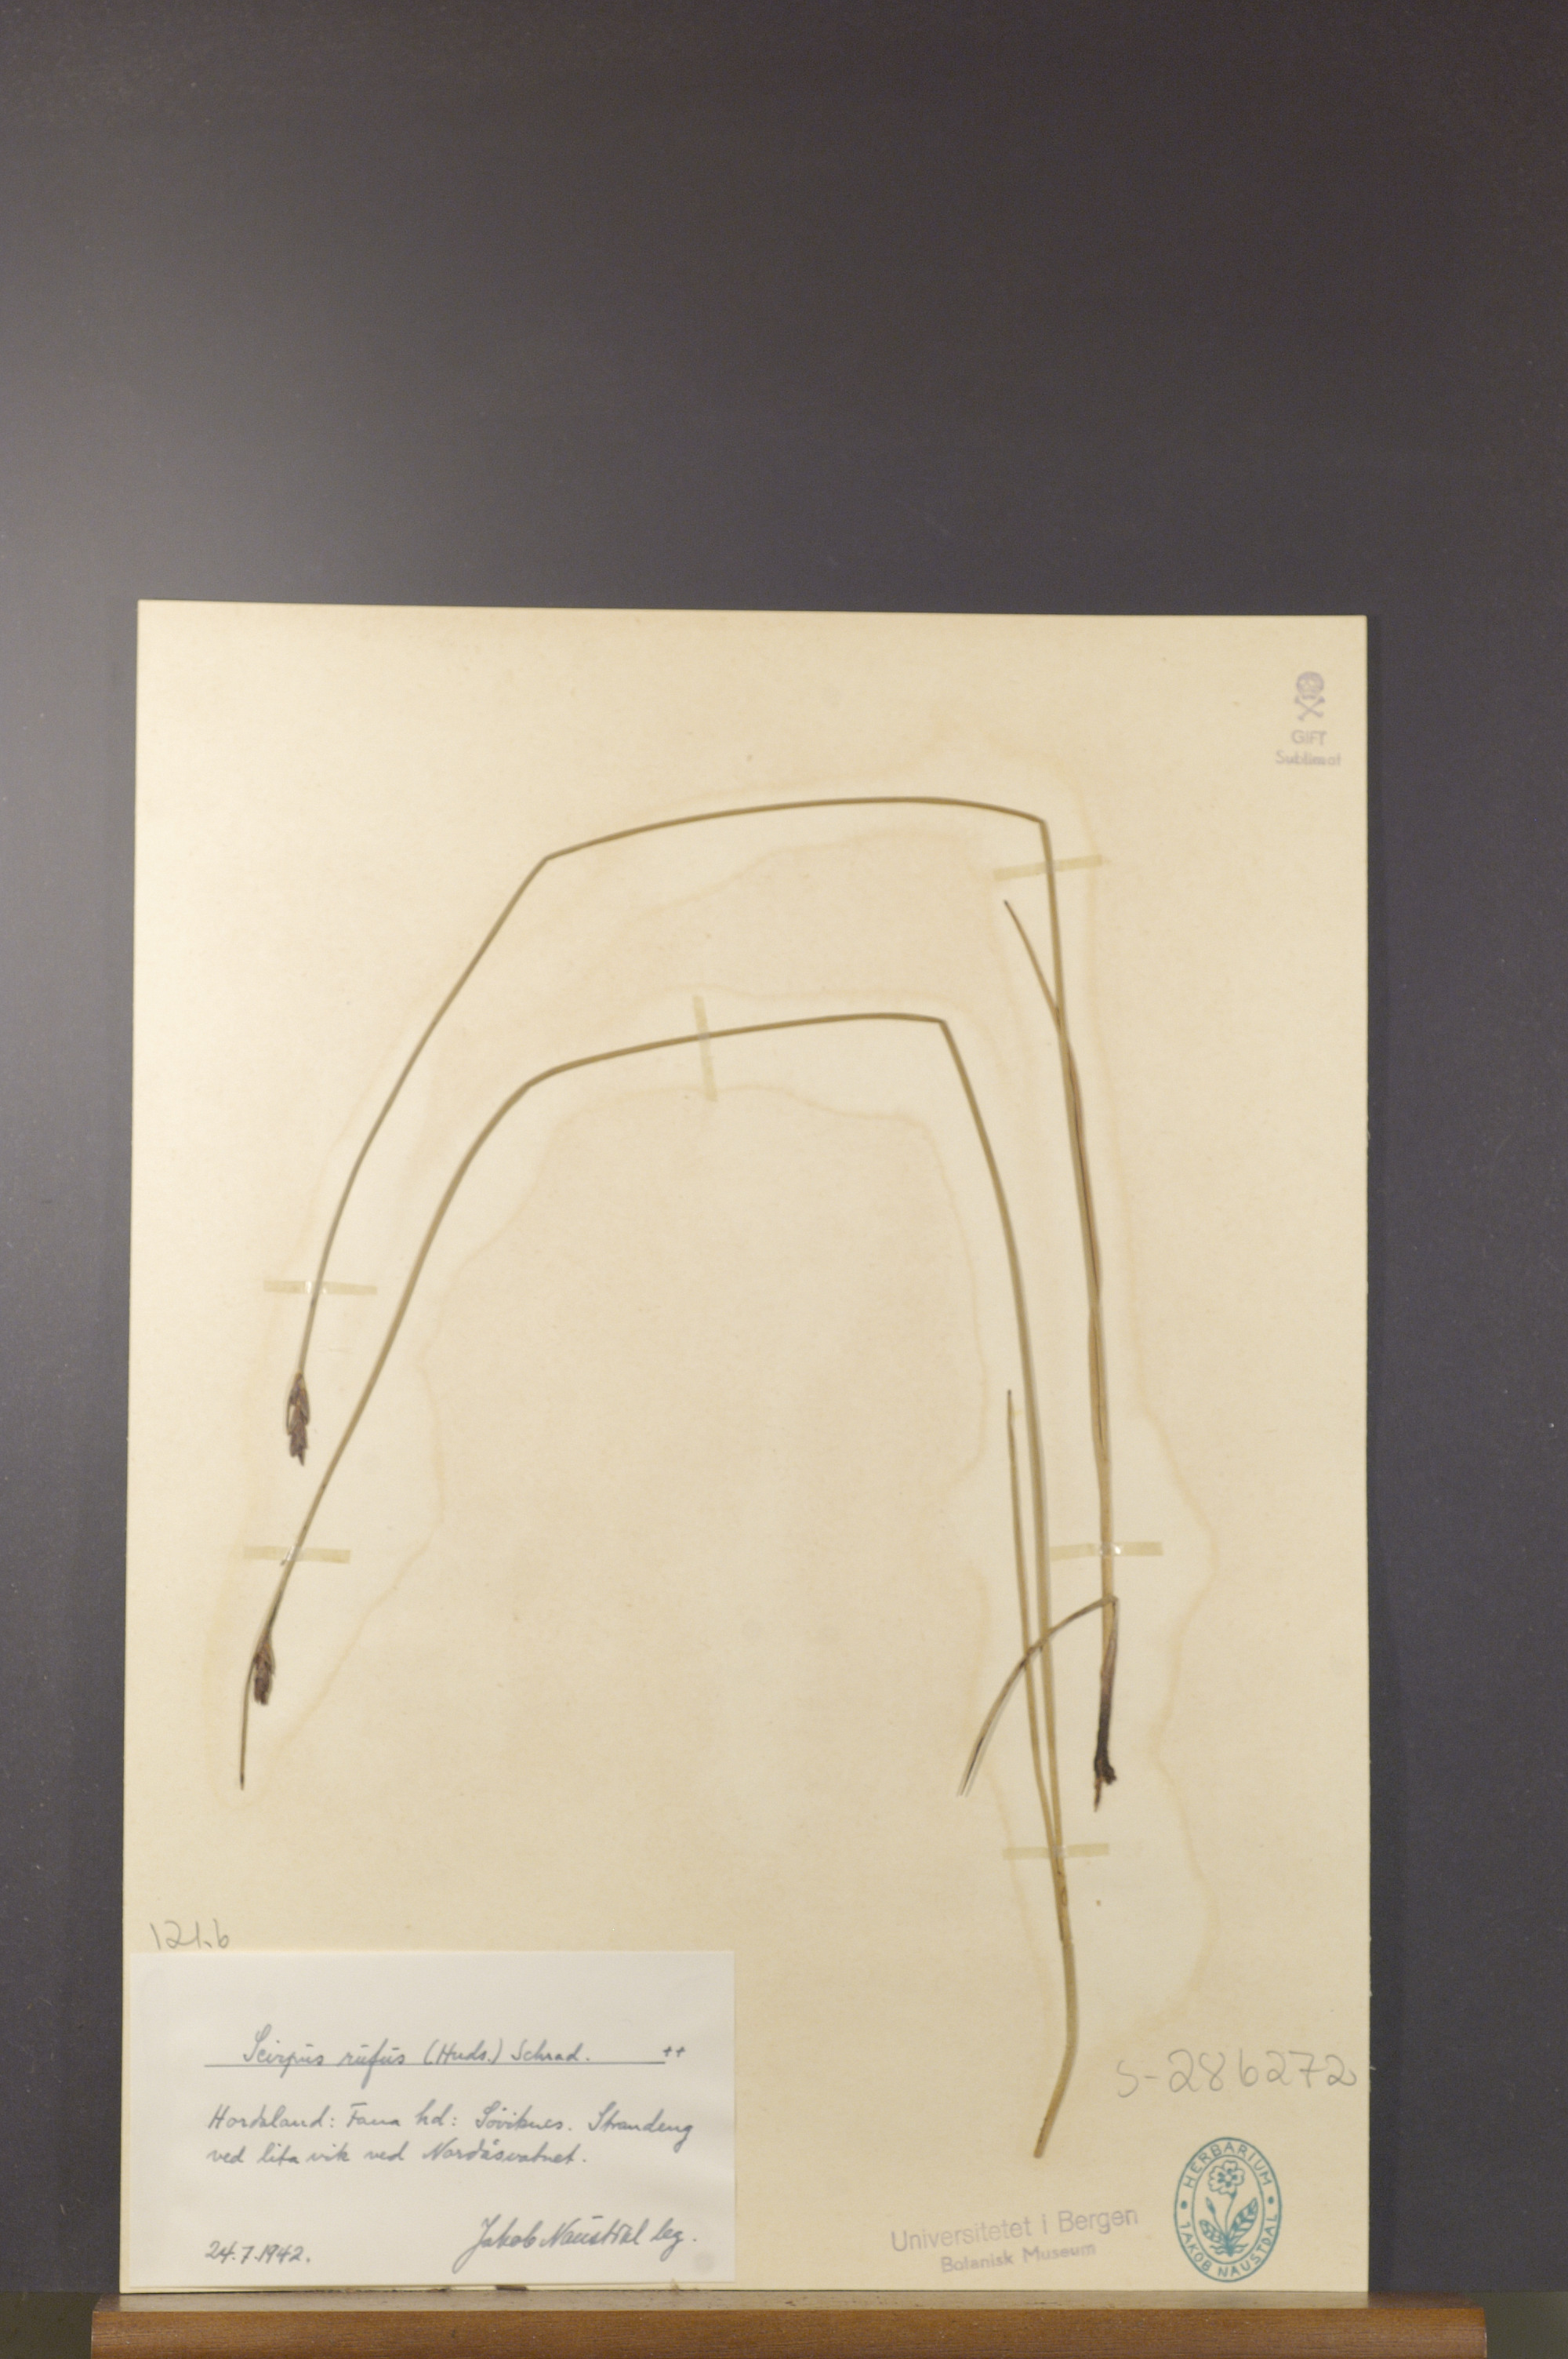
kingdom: Plantae
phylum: Tracheophyta
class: Liliopsida
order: Poales
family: Cyperaceae
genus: Blysmus
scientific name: Blysmus rufus
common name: Saltmarsh flat-sedge
